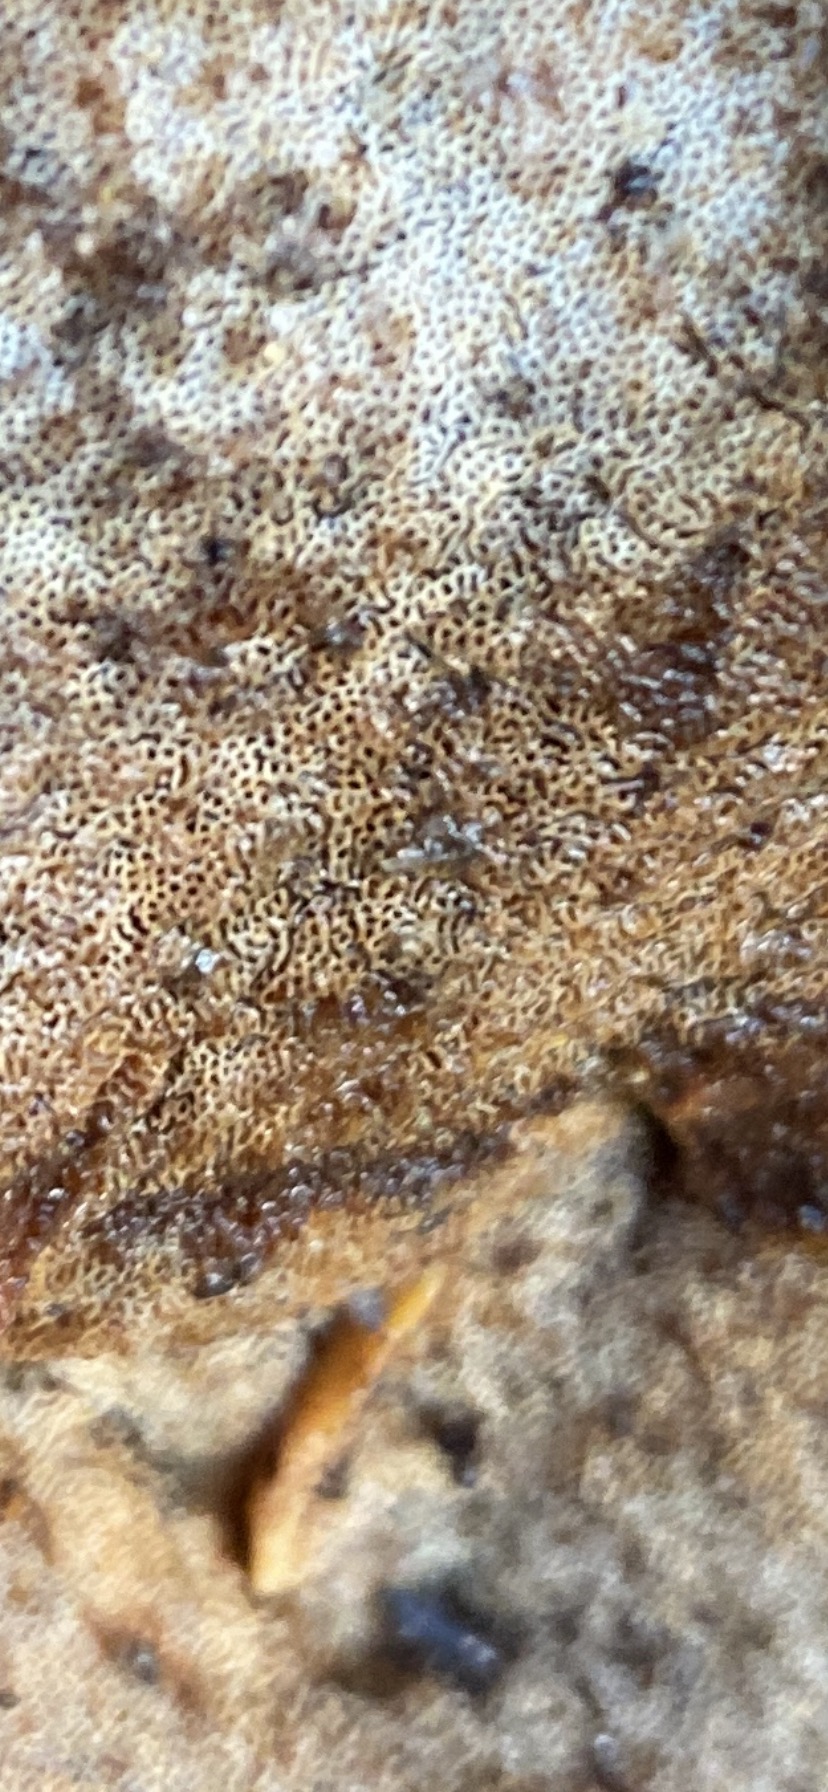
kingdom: Fungi
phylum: Basidiomycota
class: Agaricomycetes
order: Polyporales
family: Polyporaceae
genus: Cerioporus
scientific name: Cerioporus varius
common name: foranderlig stilkporesvamp
